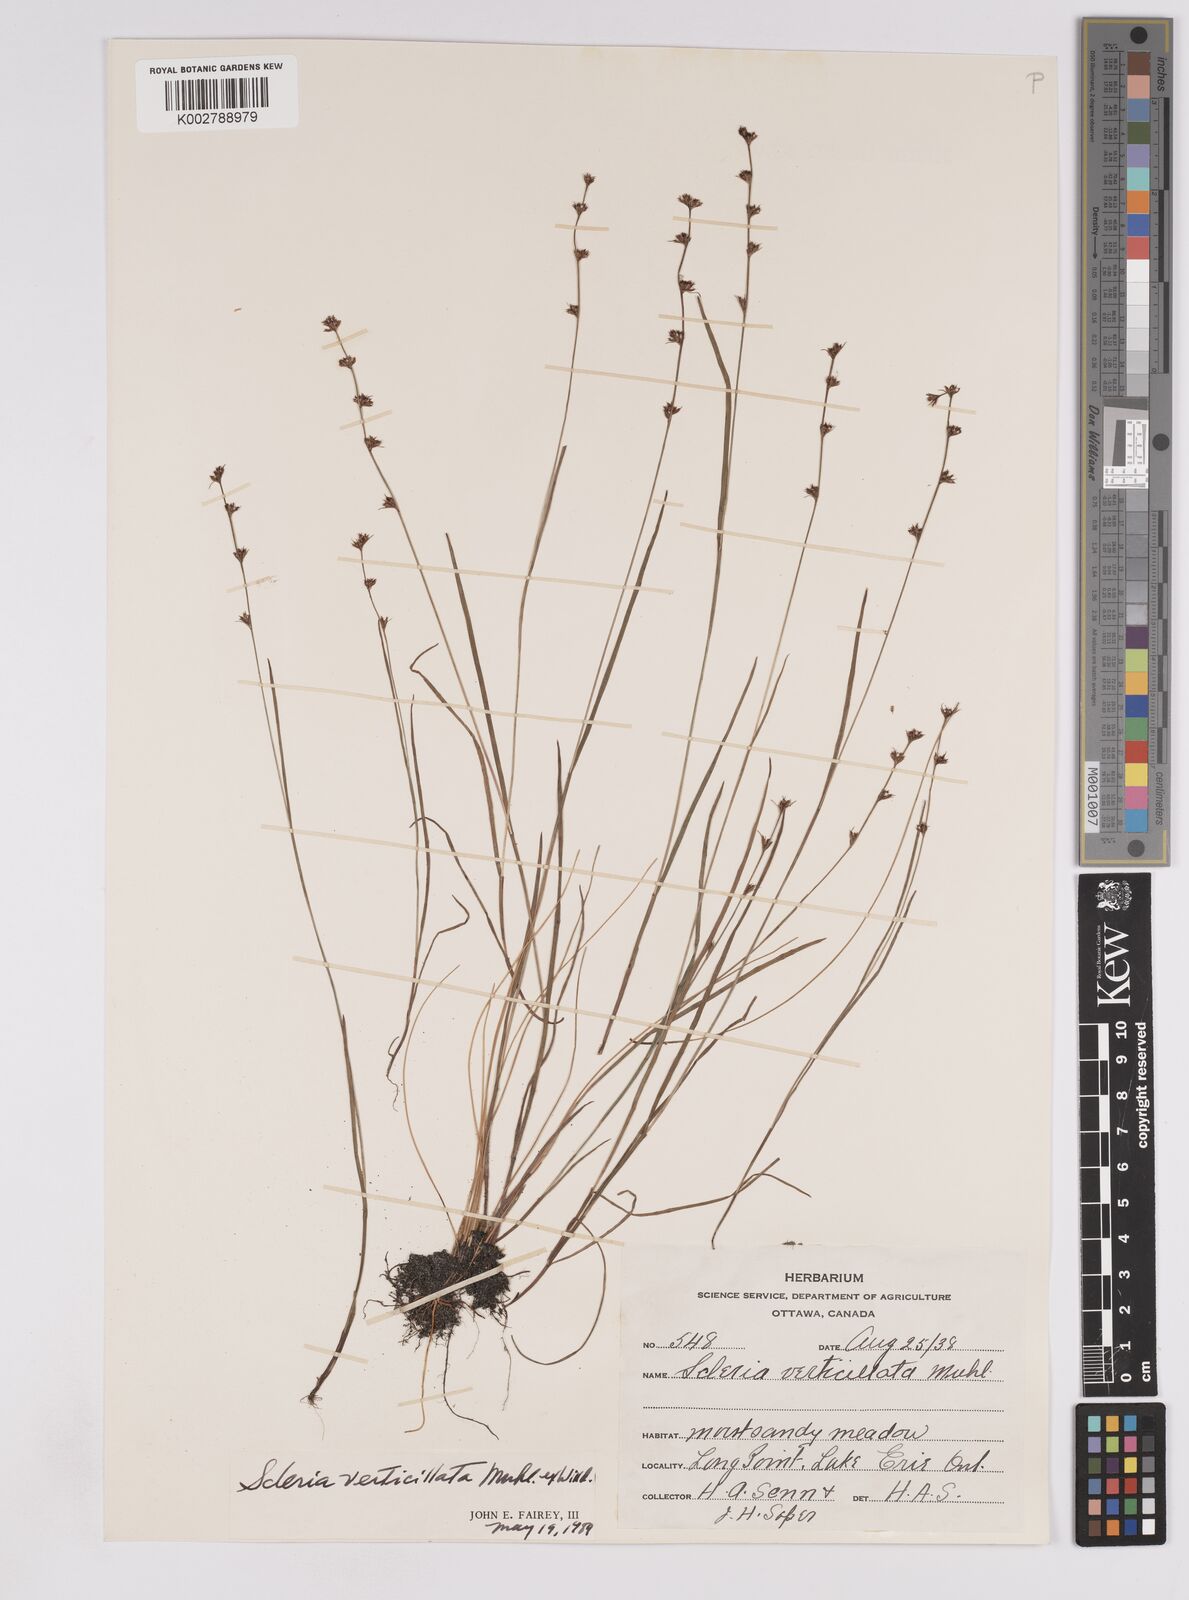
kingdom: Plantae
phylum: Tracheophyta
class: Liliopsida
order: Poales
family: Cyperaceae
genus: Scleria
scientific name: Scleria verticillata
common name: Low nutrush
